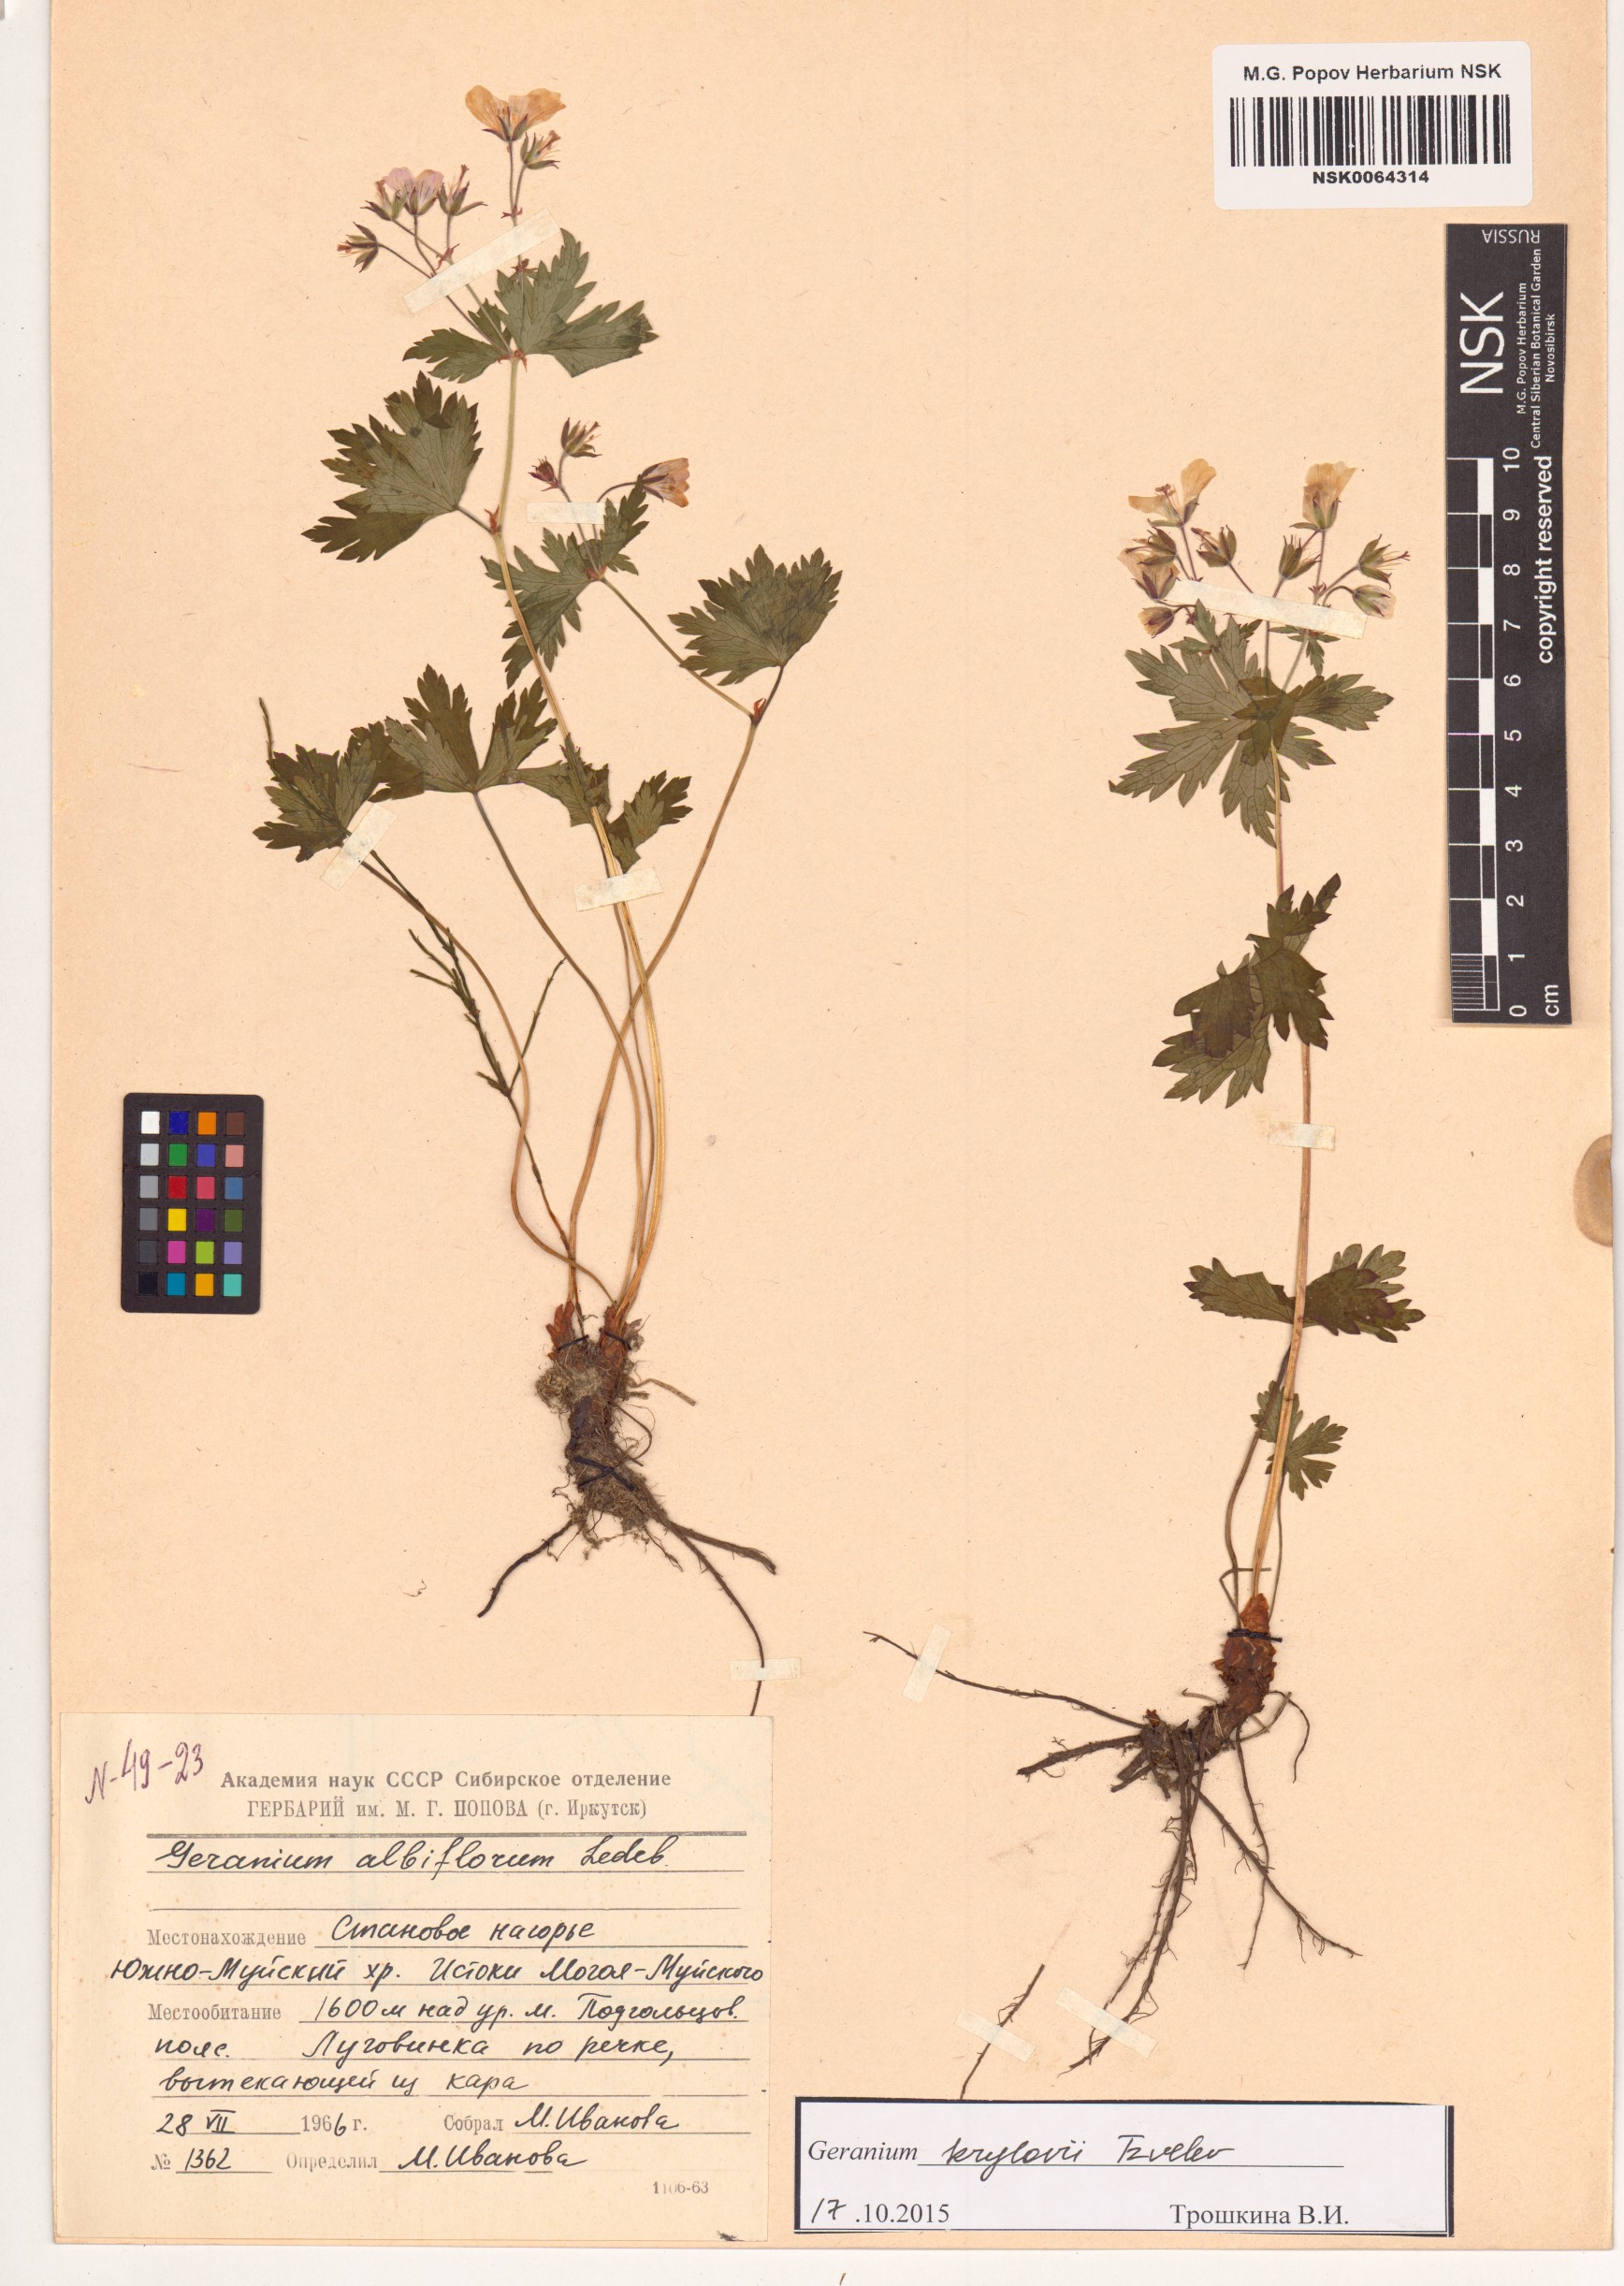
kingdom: Plantae
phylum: Tracheophyta
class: Magnoliopsida
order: Geraniales
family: Geraniaceae
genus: Geranium
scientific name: Geranium sylvaticum
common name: Wood crane's-bill
